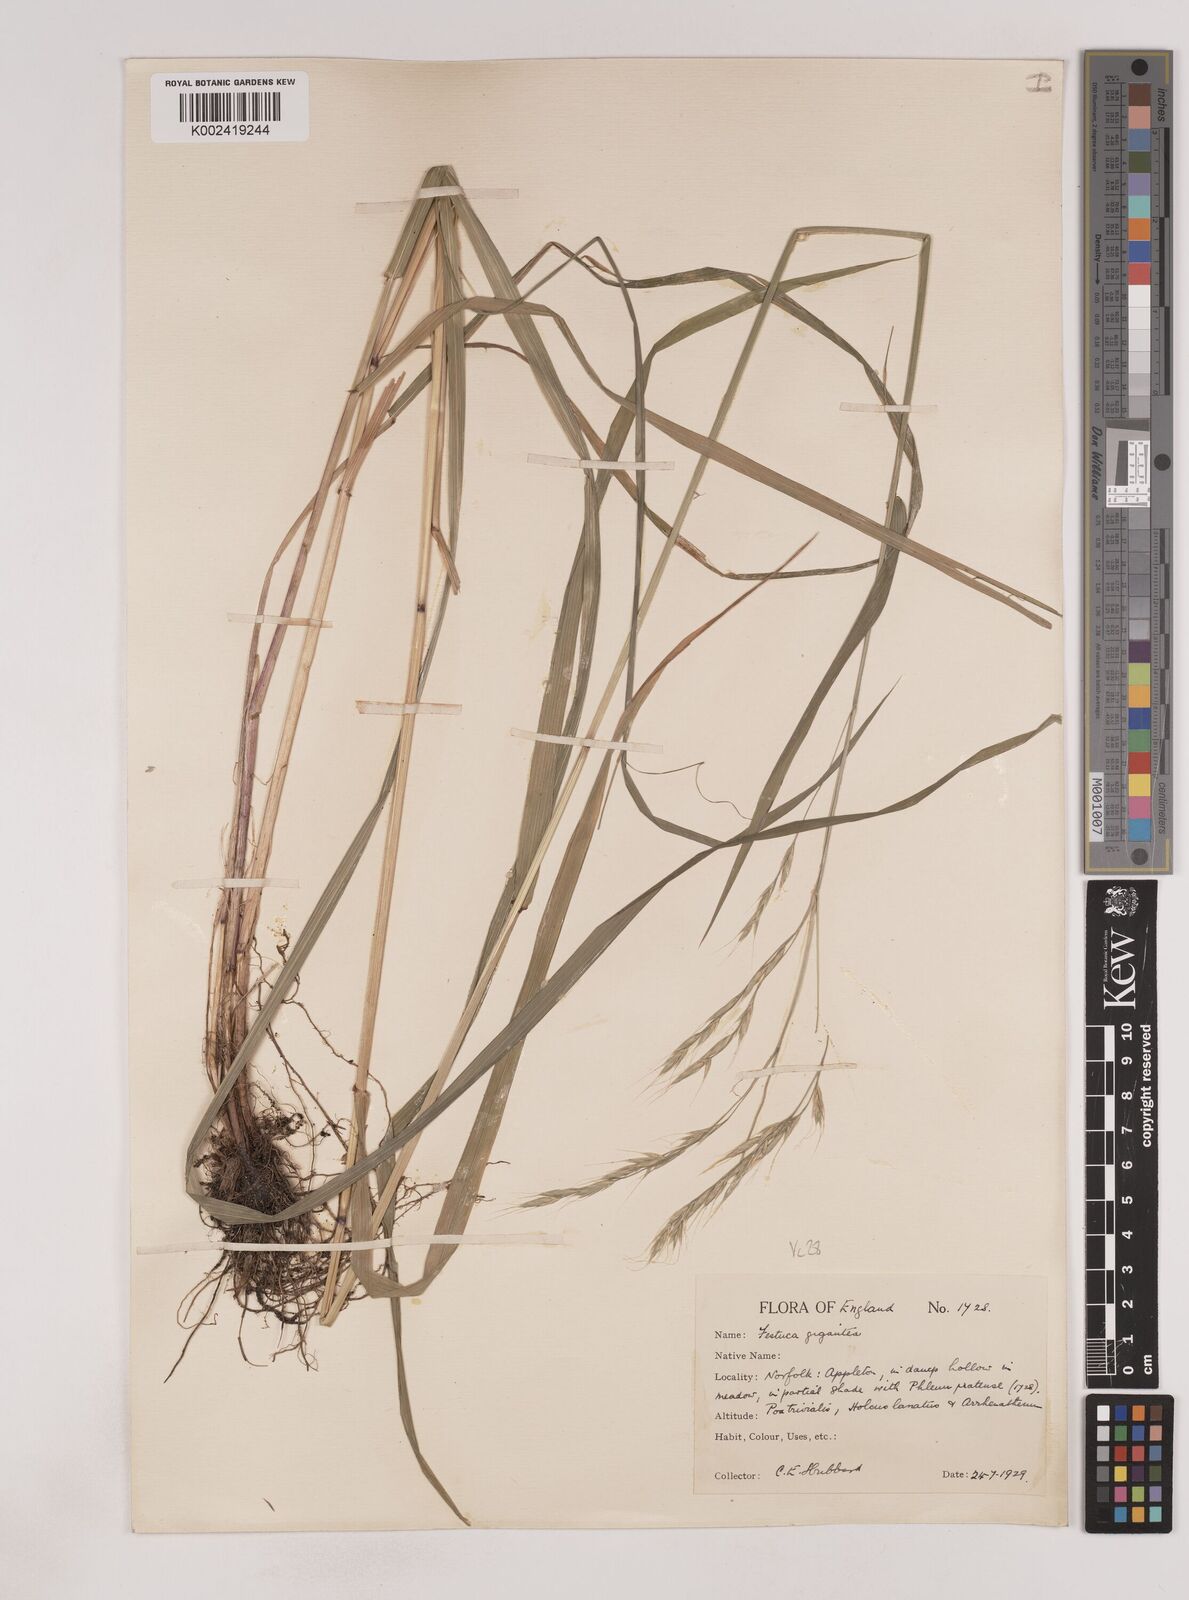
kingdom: Plantae
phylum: Tracheophyta
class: Liliopsida
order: Poales
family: Poaceae
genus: Lolium
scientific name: Lolium giganteum
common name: Giant fescue
